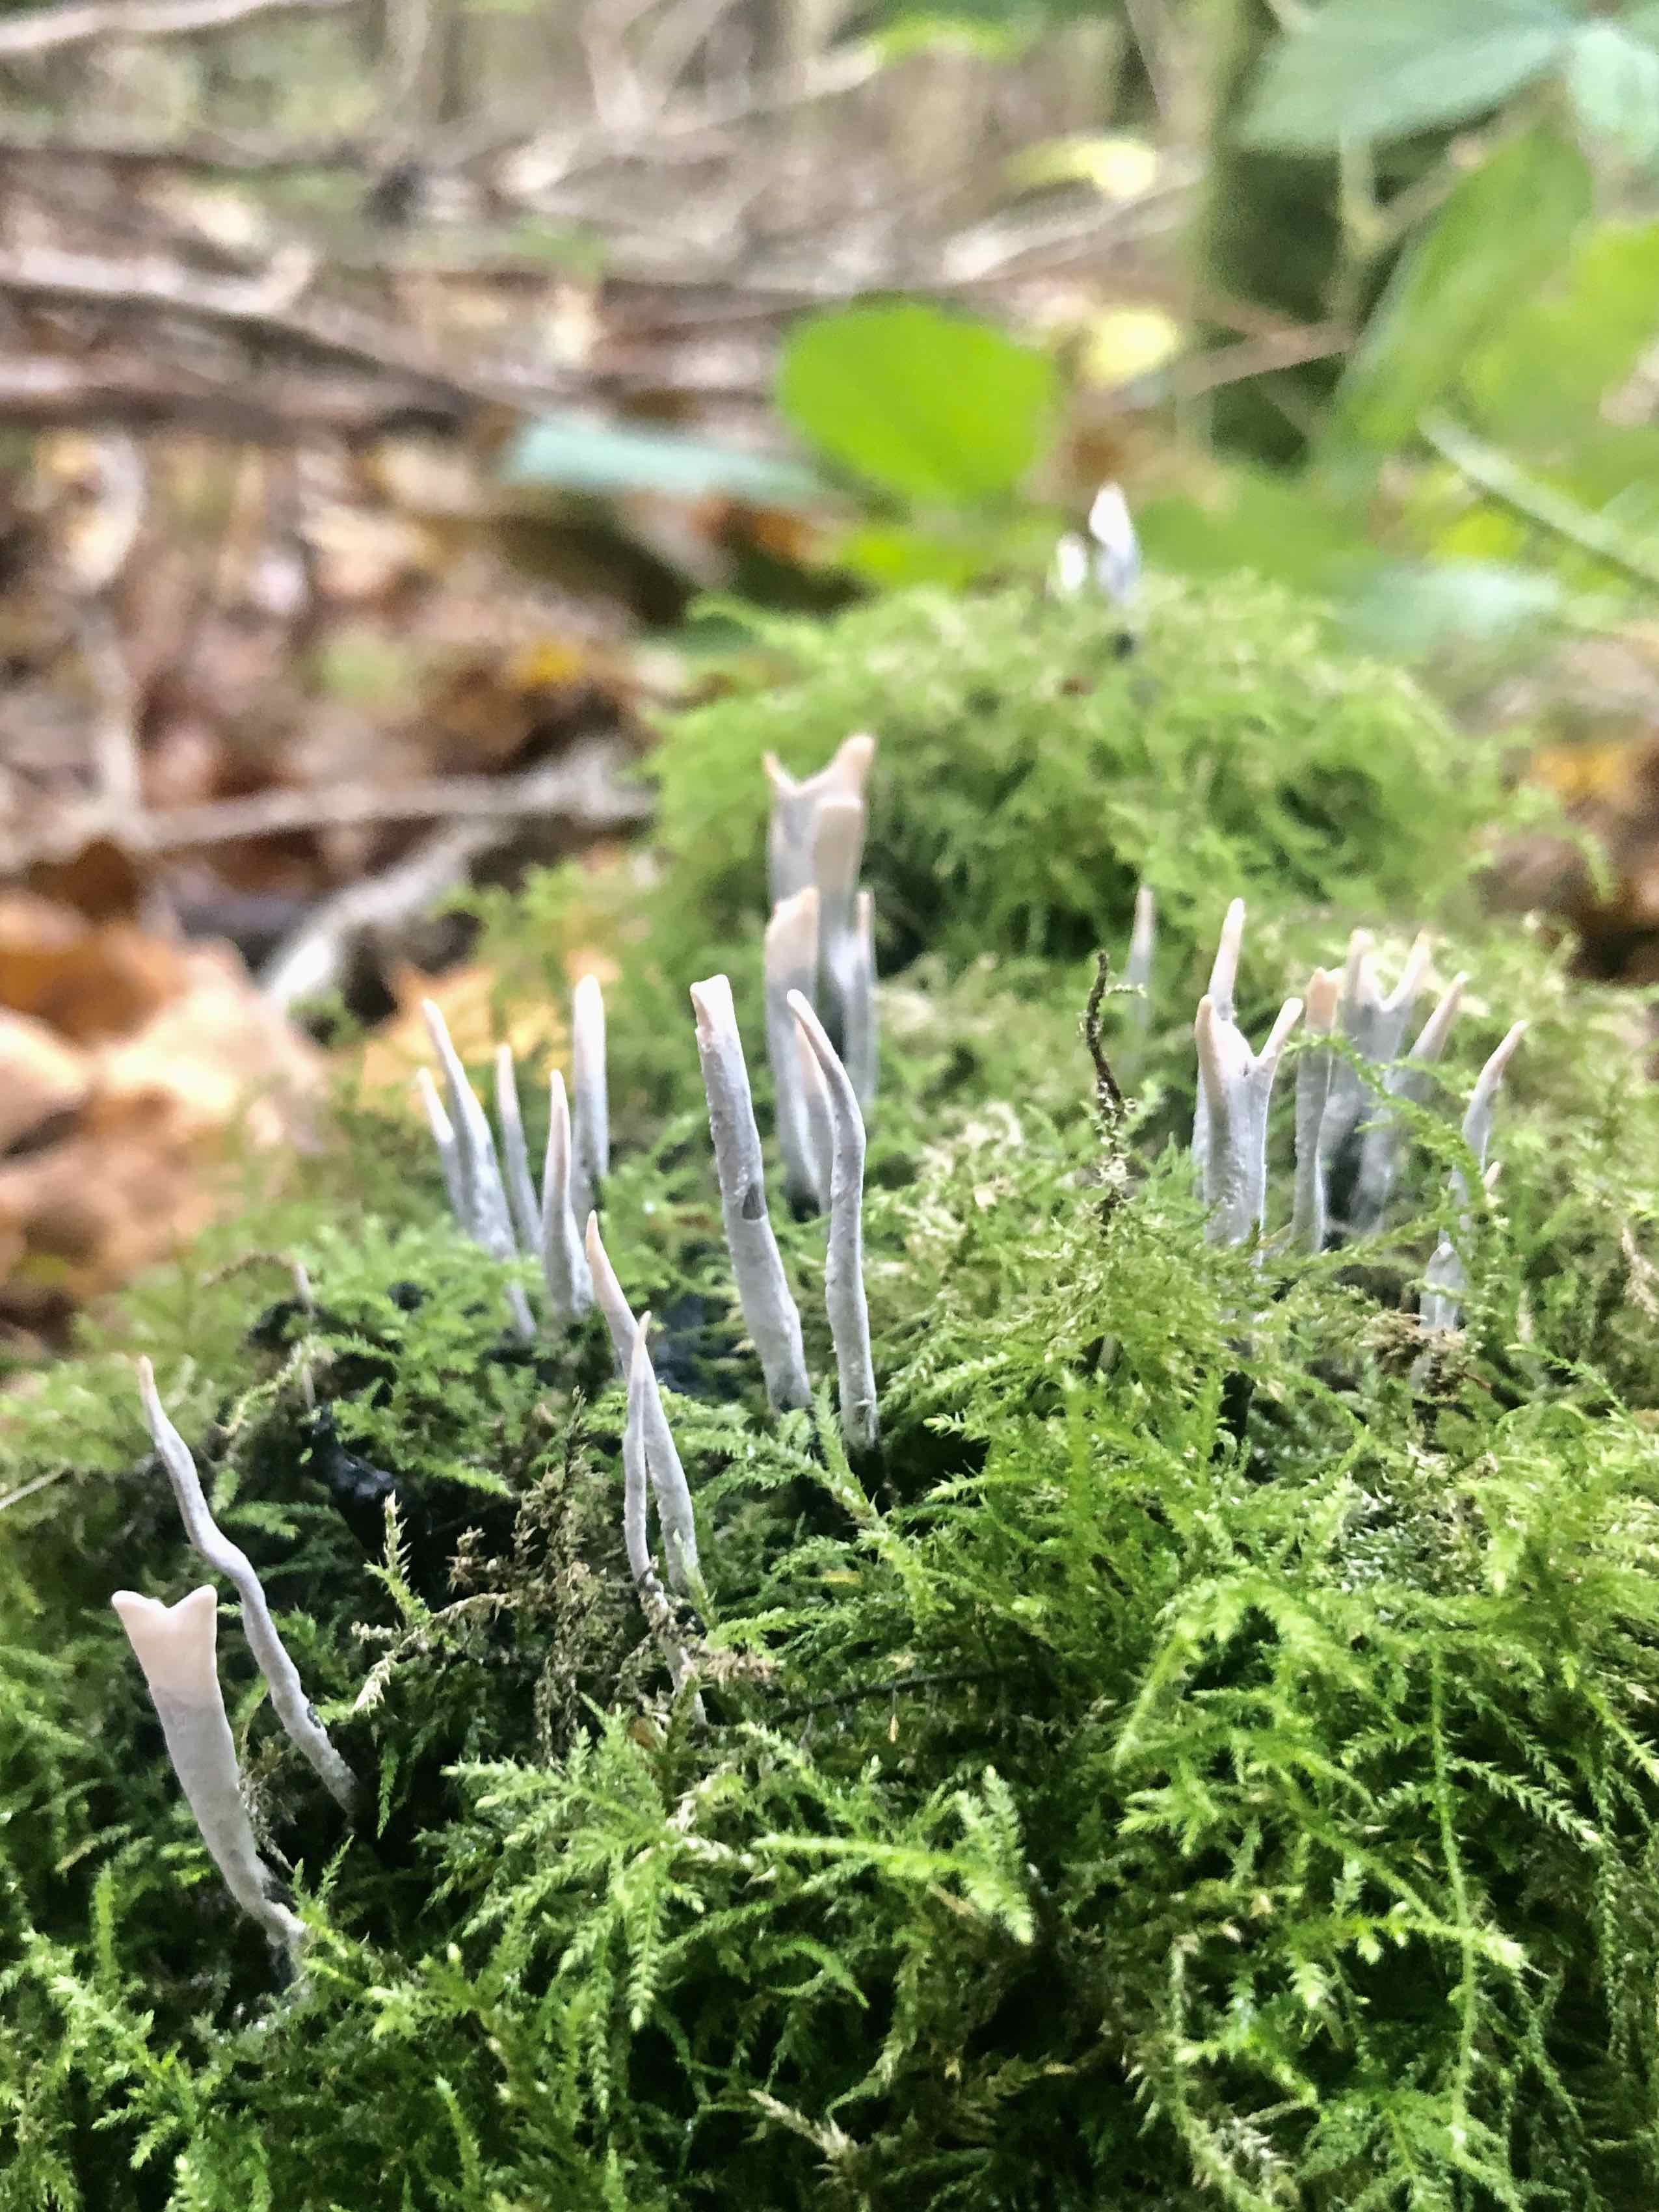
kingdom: Fungi
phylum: Ascomycota
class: Sordariomycetes
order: Xylariales
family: Xylariaceae
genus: Xylaria
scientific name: Xylaria hypoxylon
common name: grenet stødsvamp
